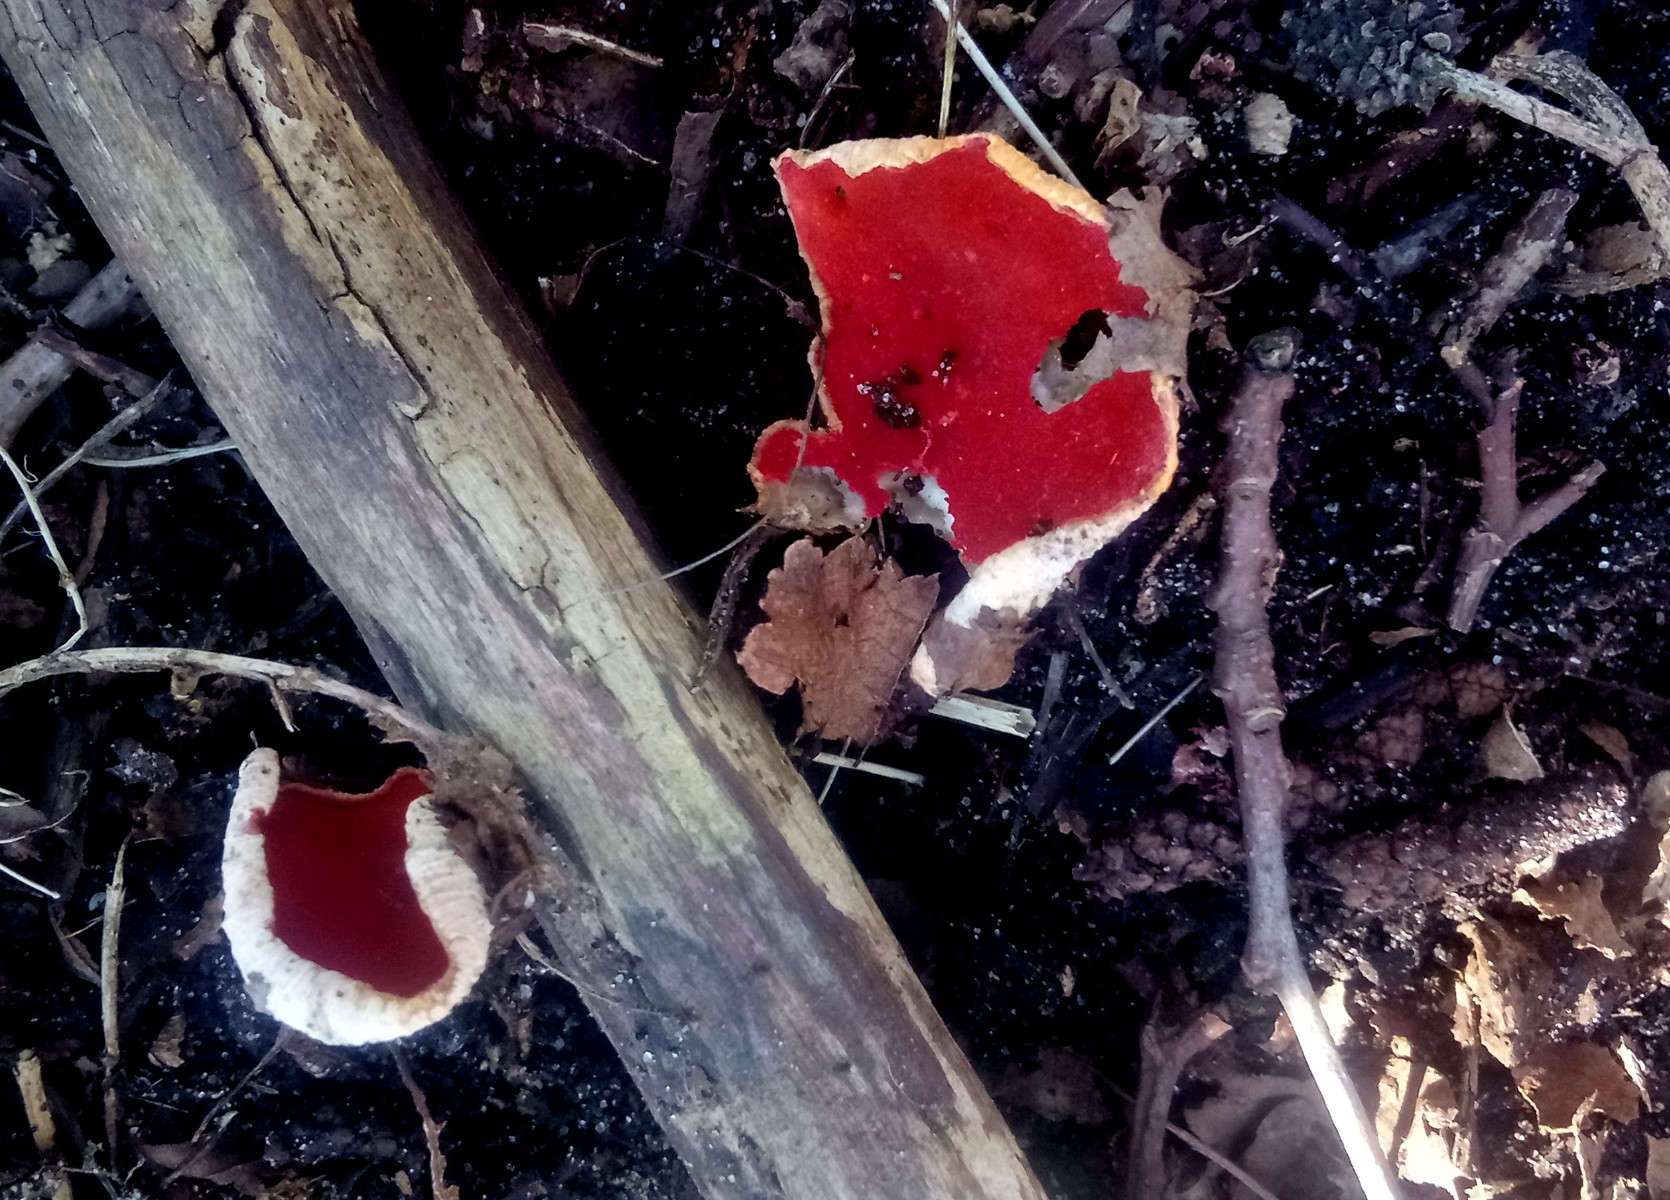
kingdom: Fungi
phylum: Ascomycota
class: Pezizomycetes
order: Pezizales
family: Sarcoscyphaceae
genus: Sarcoscypha
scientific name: Sarcoscypha austriaca
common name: krølhåret pragtbæger
